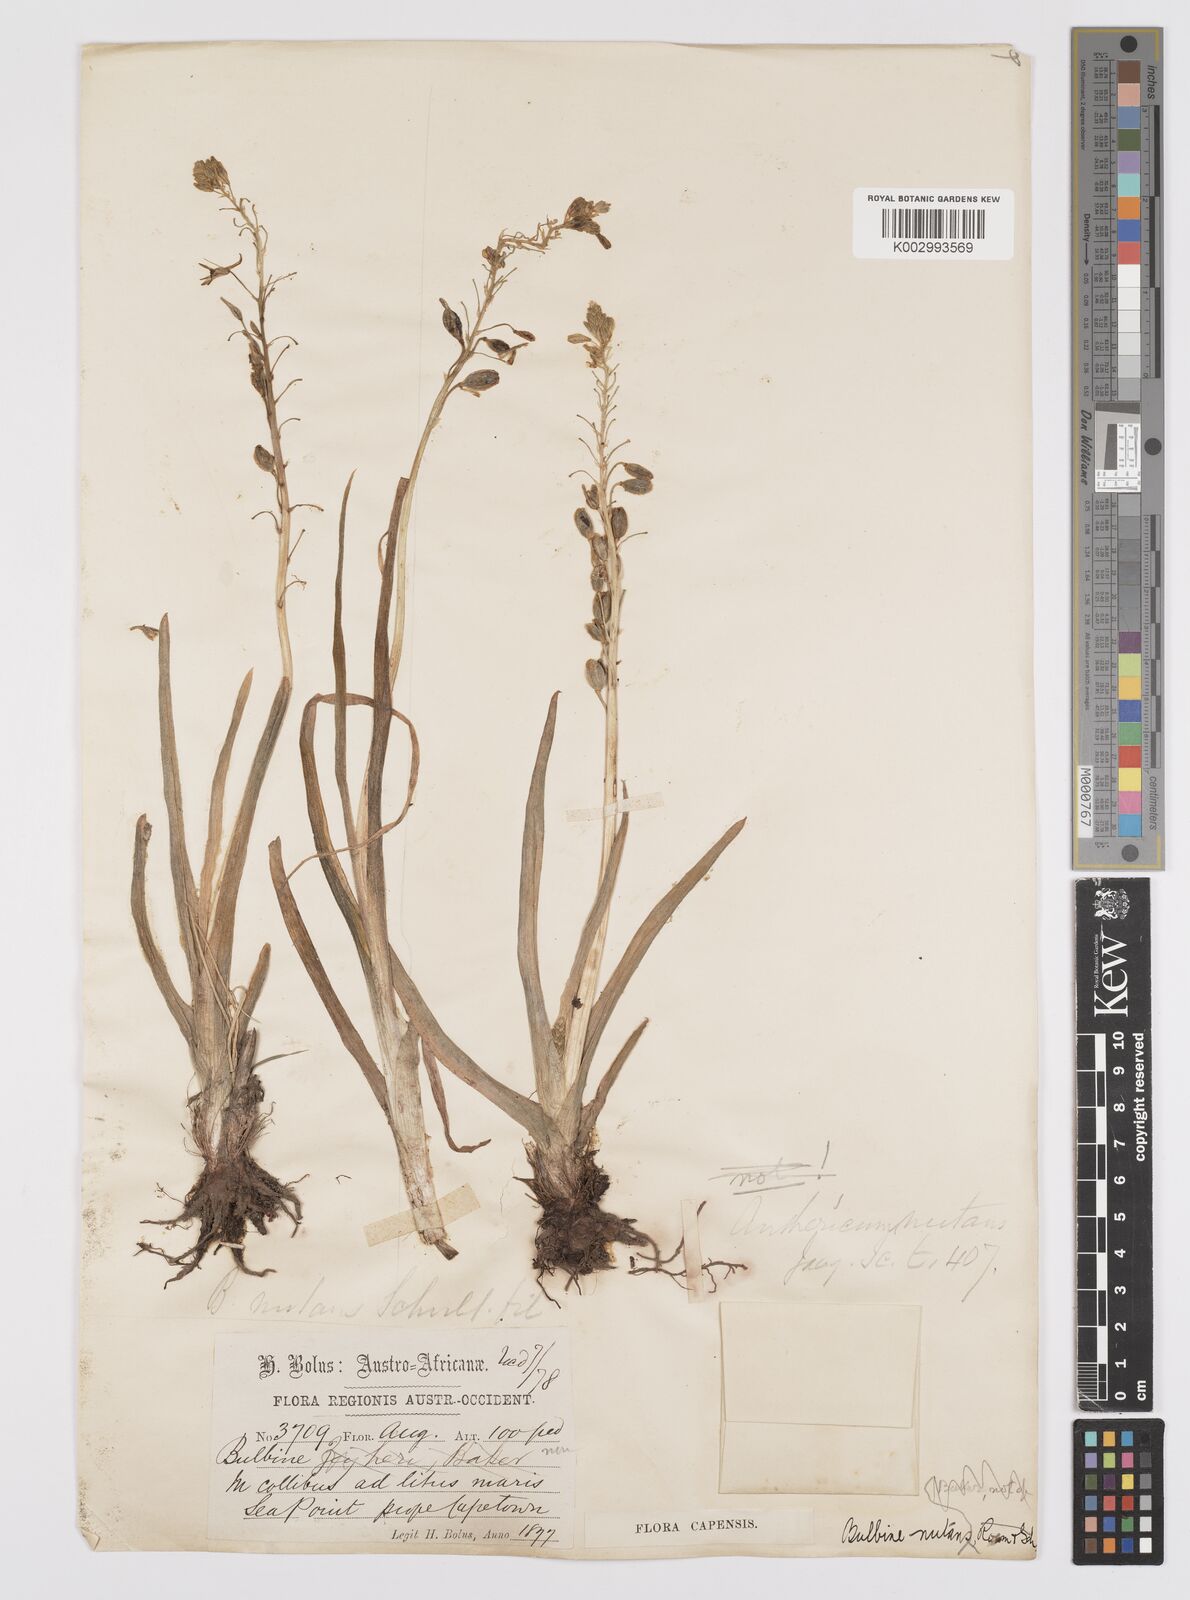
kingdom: Plantae
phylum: Tracheophyta
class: Liliopsida
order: Asparagales
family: Asphodelaceae
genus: Bulbine
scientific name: Bulbine praemorsa
